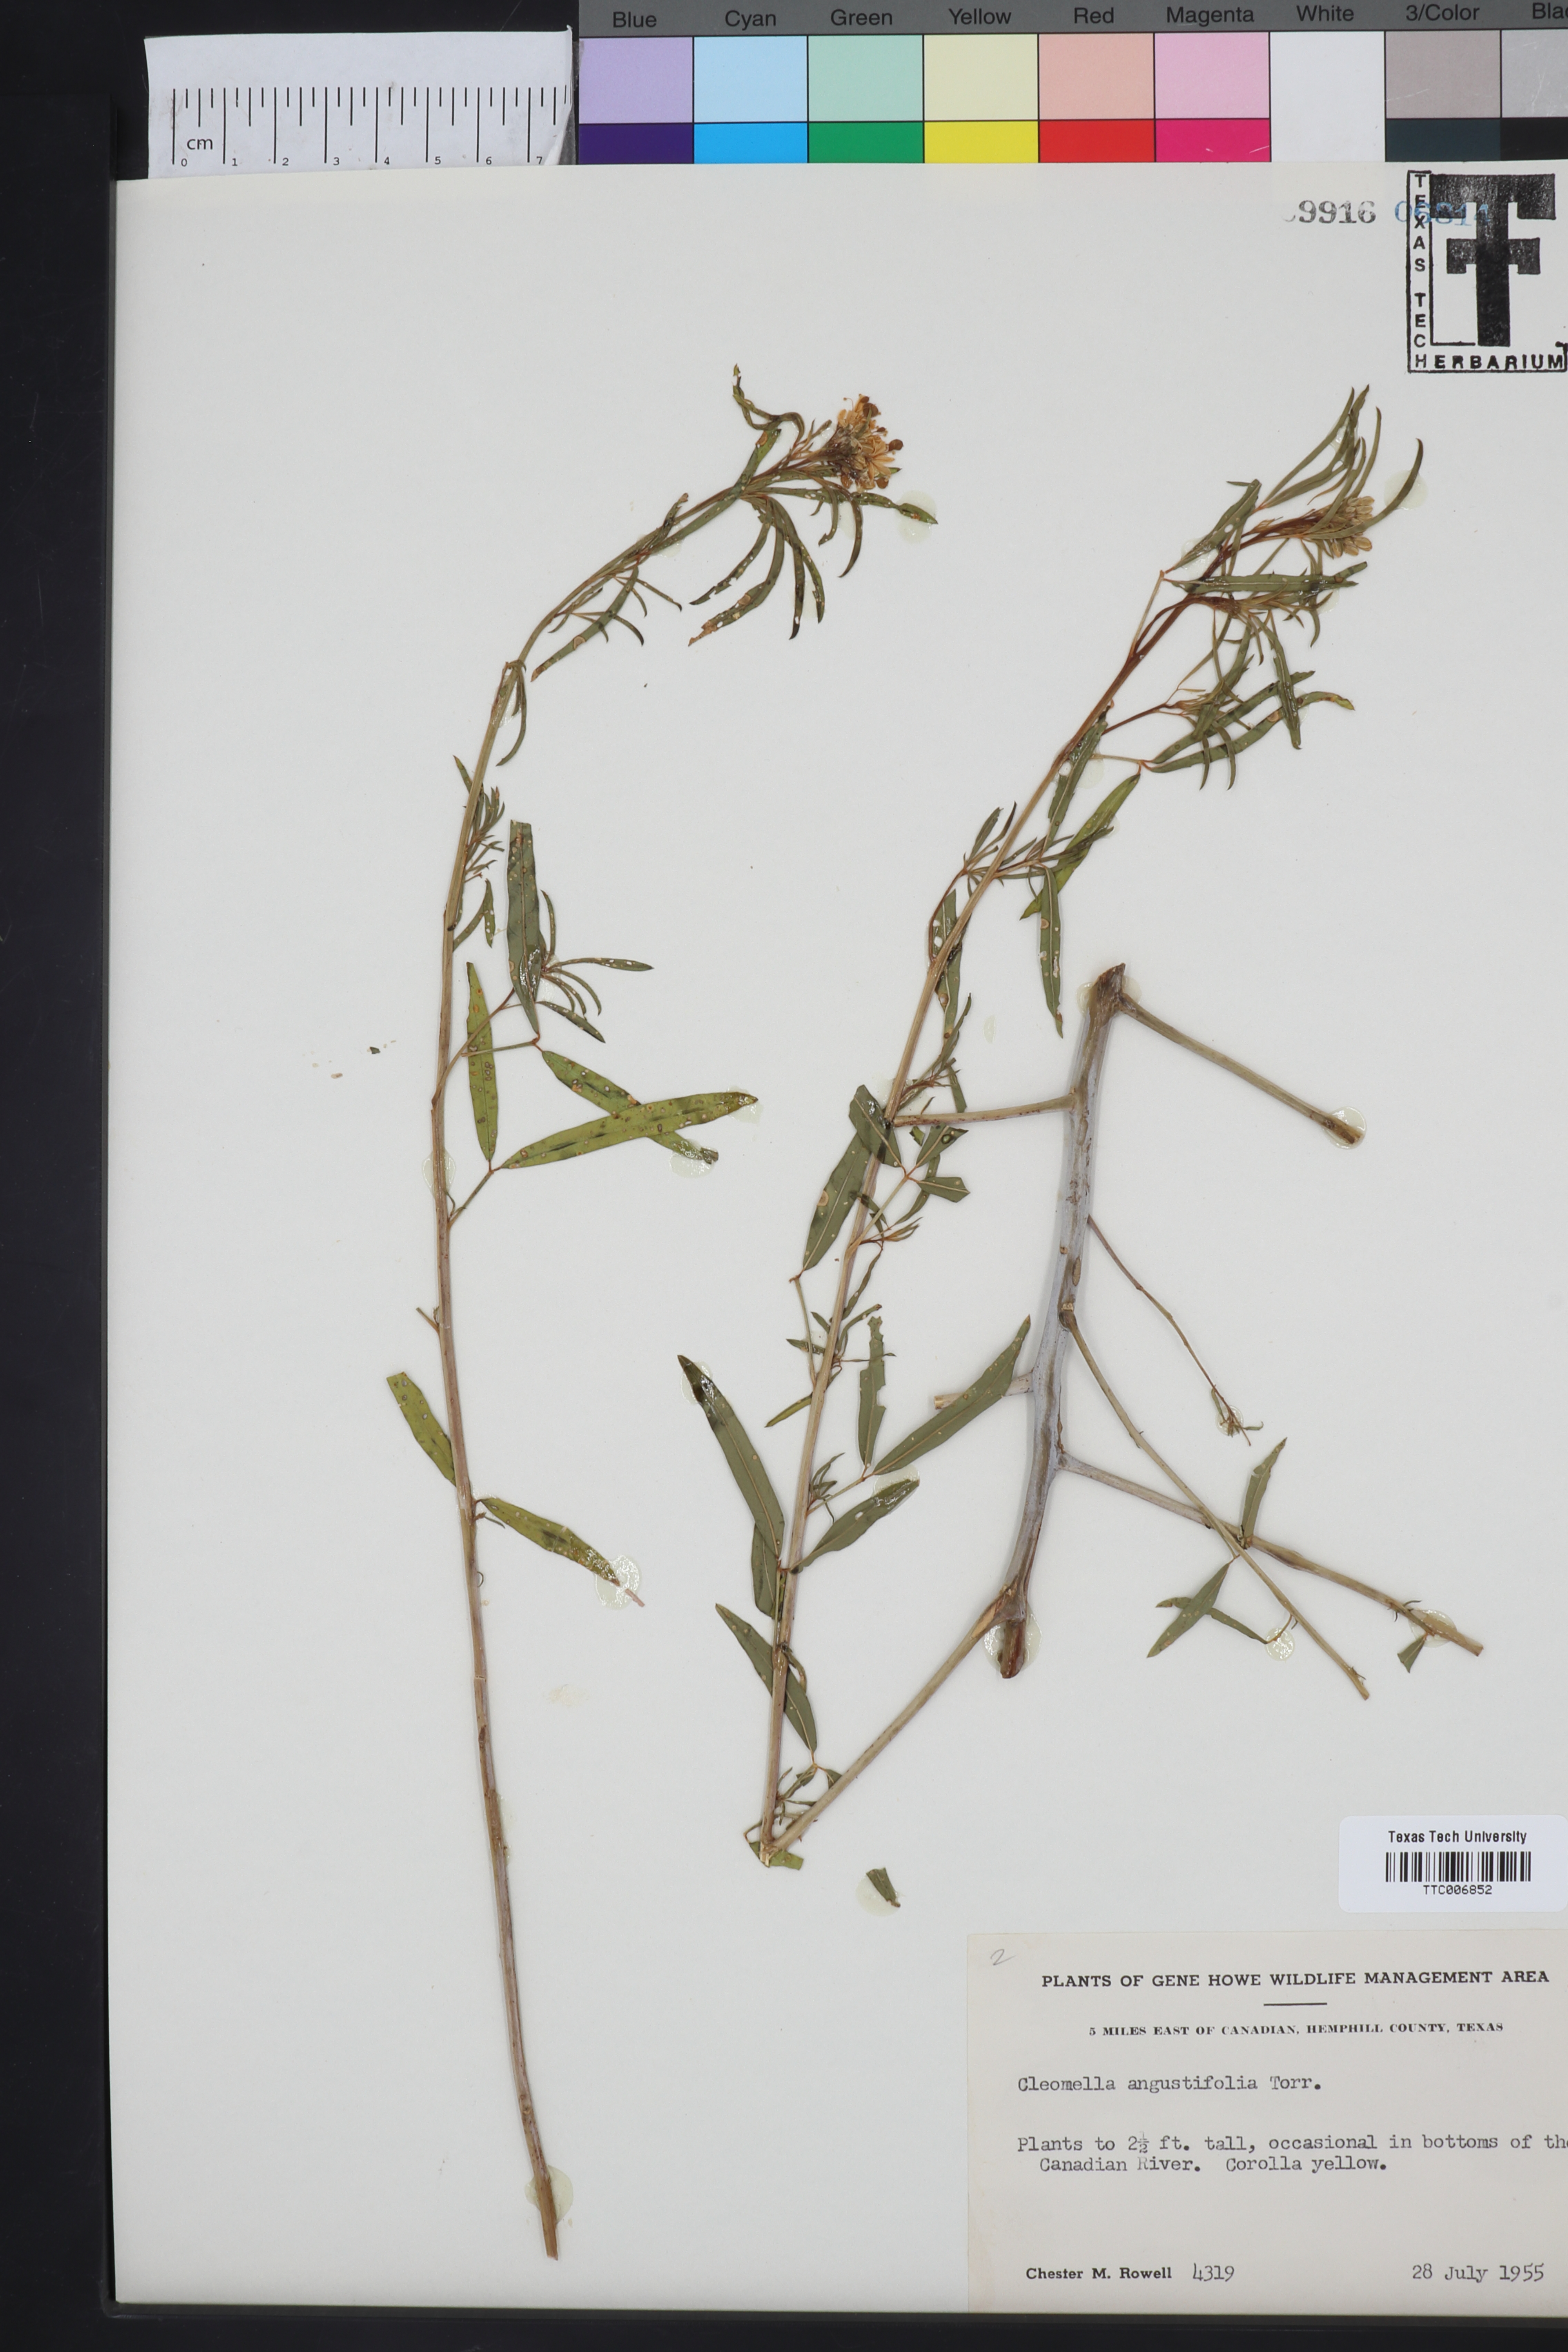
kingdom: Plantae
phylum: Tracheophyta
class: Magnoliopsida
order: Brassicales
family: Cleomaceae
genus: Cleomella
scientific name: Cleomella angustifolia
